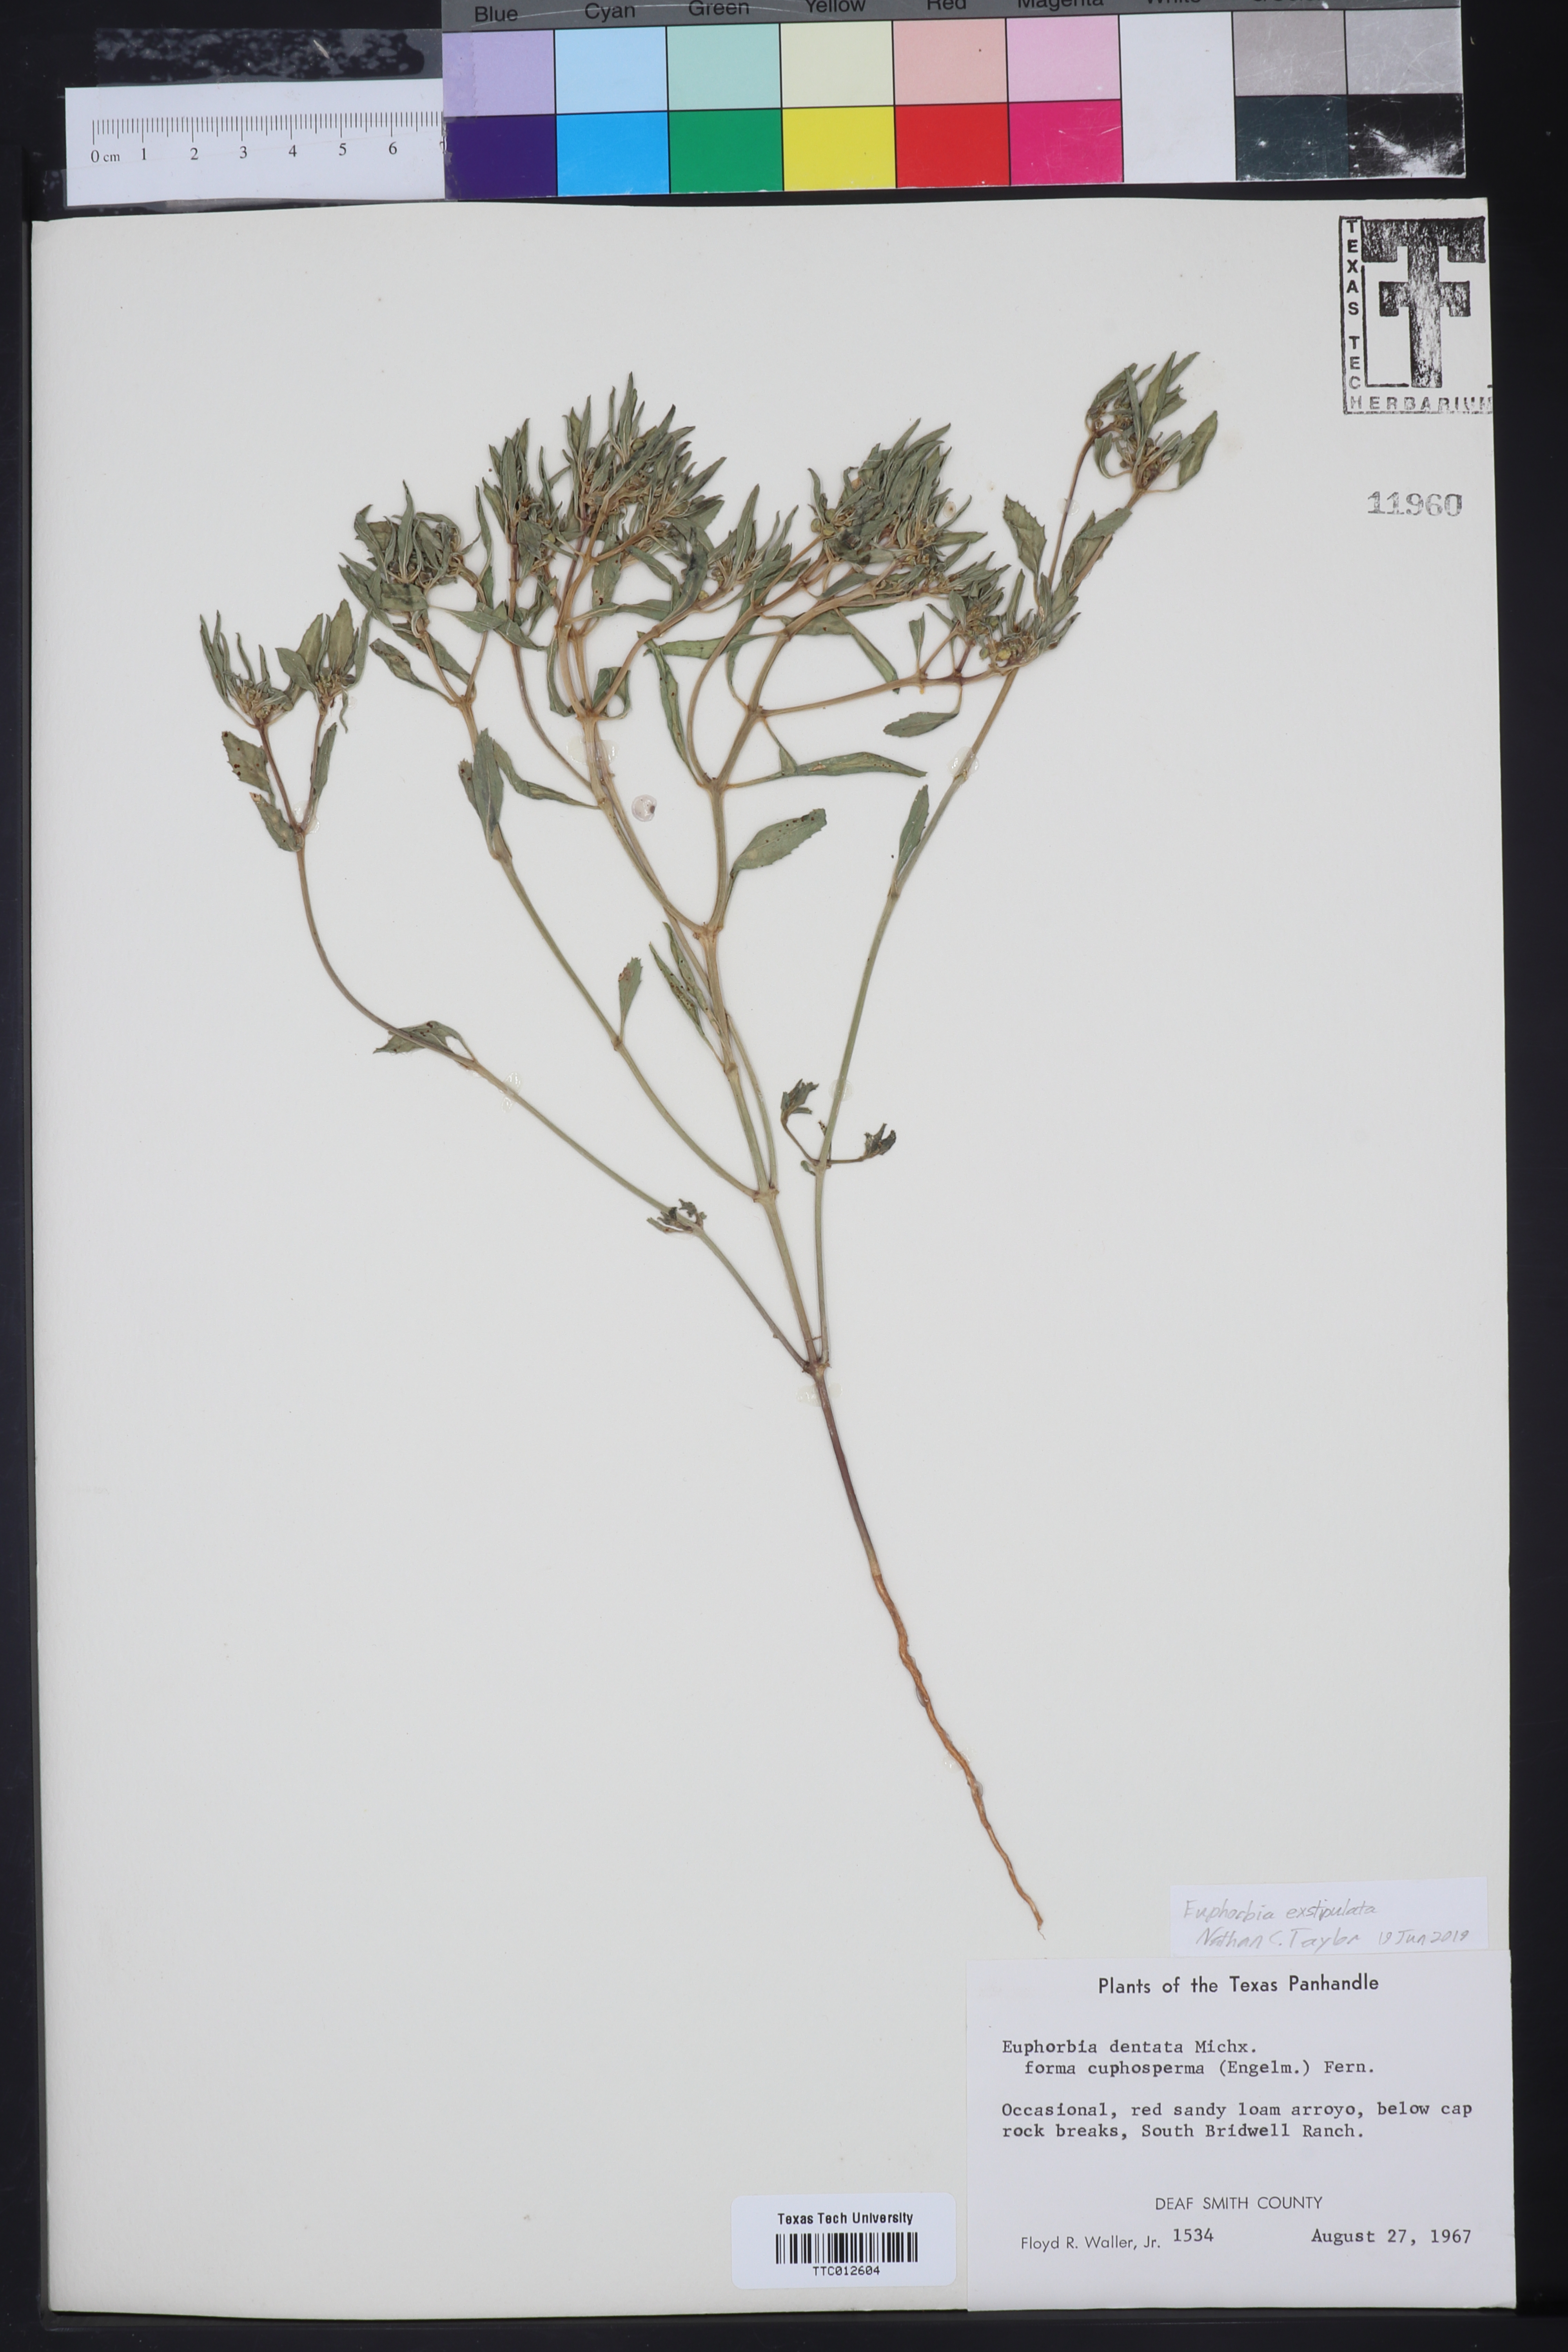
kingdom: Plantae
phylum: Tracheophyta
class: Magnoliopsida
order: Malpighiales
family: Euphorbiaceae
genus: Euphorbia
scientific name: Euphorbia exstipulata
